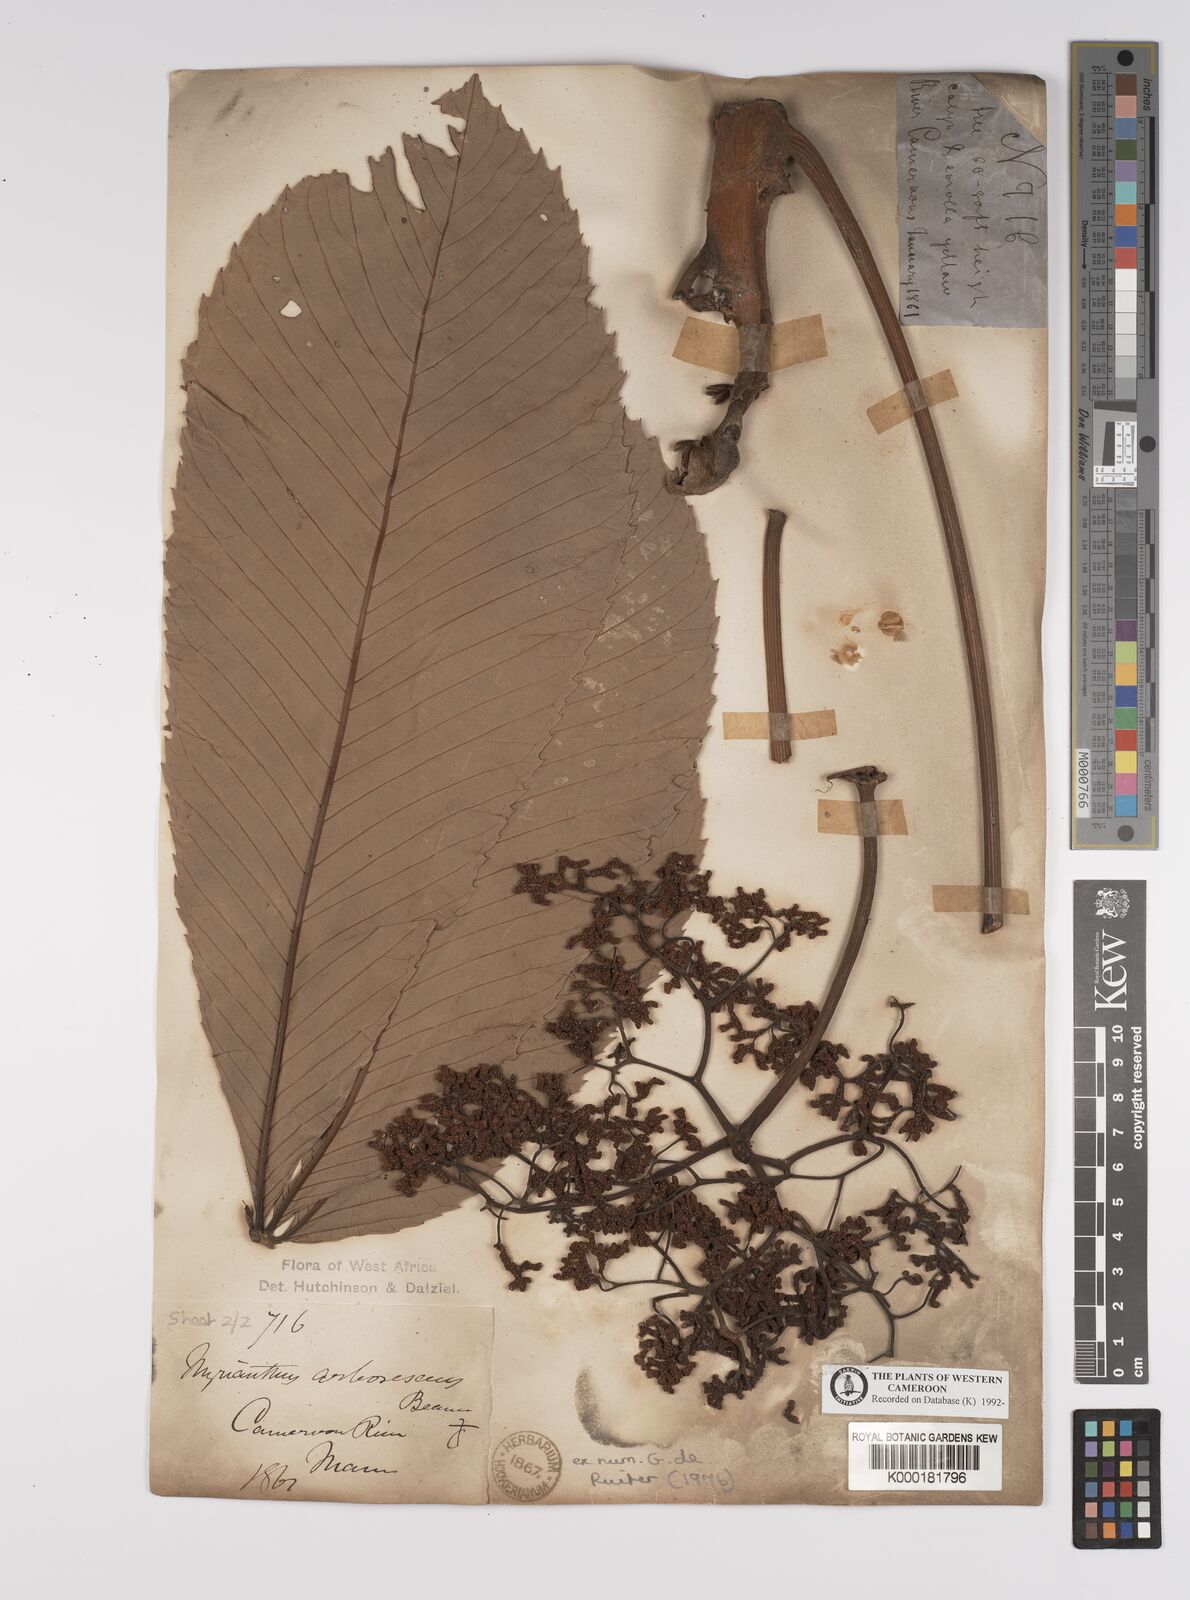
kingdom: Plantae
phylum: Tracheophyta
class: Magnoliopsida
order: Rosales
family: Urticaceae
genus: Myrianthus
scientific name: Myrianthus arboreus
